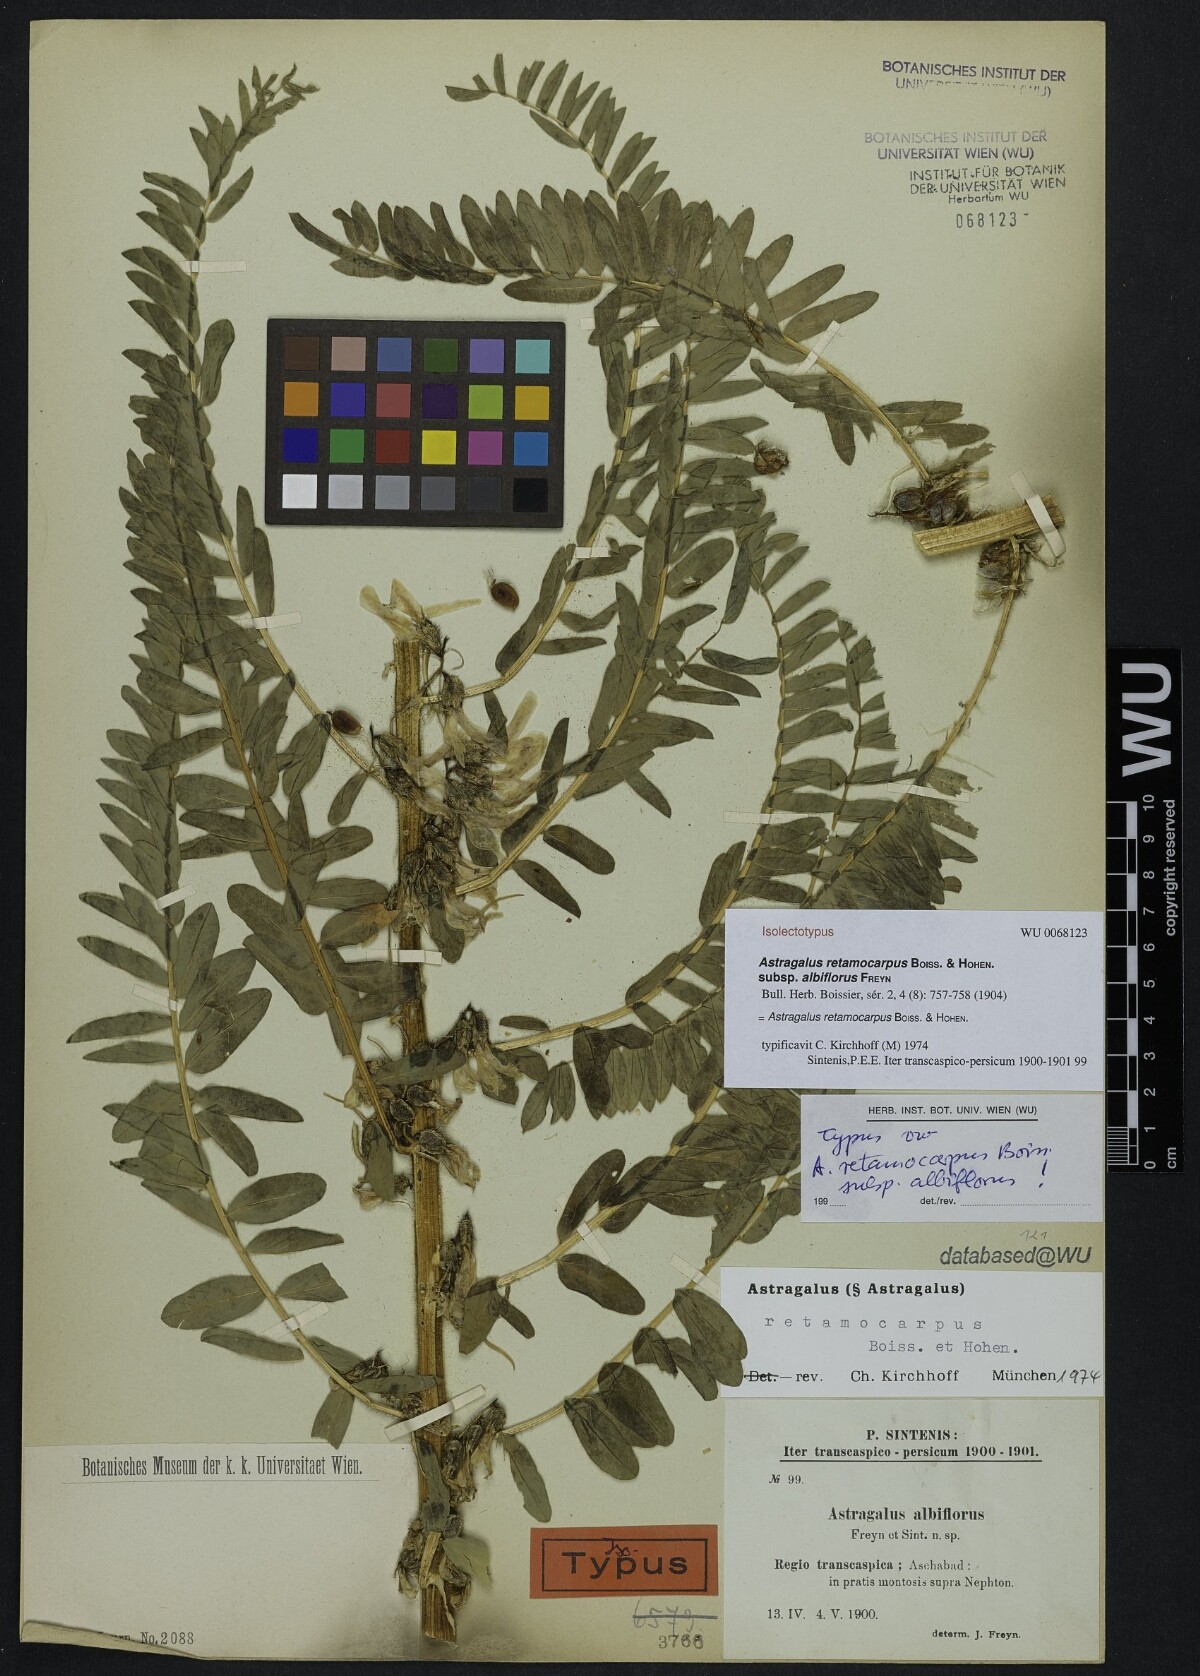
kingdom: Plantae
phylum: Tracheophyta
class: Magnoliopsida
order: Fabales
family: Fabaceae
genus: Astragalus
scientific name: Astragalus retamocarpus
